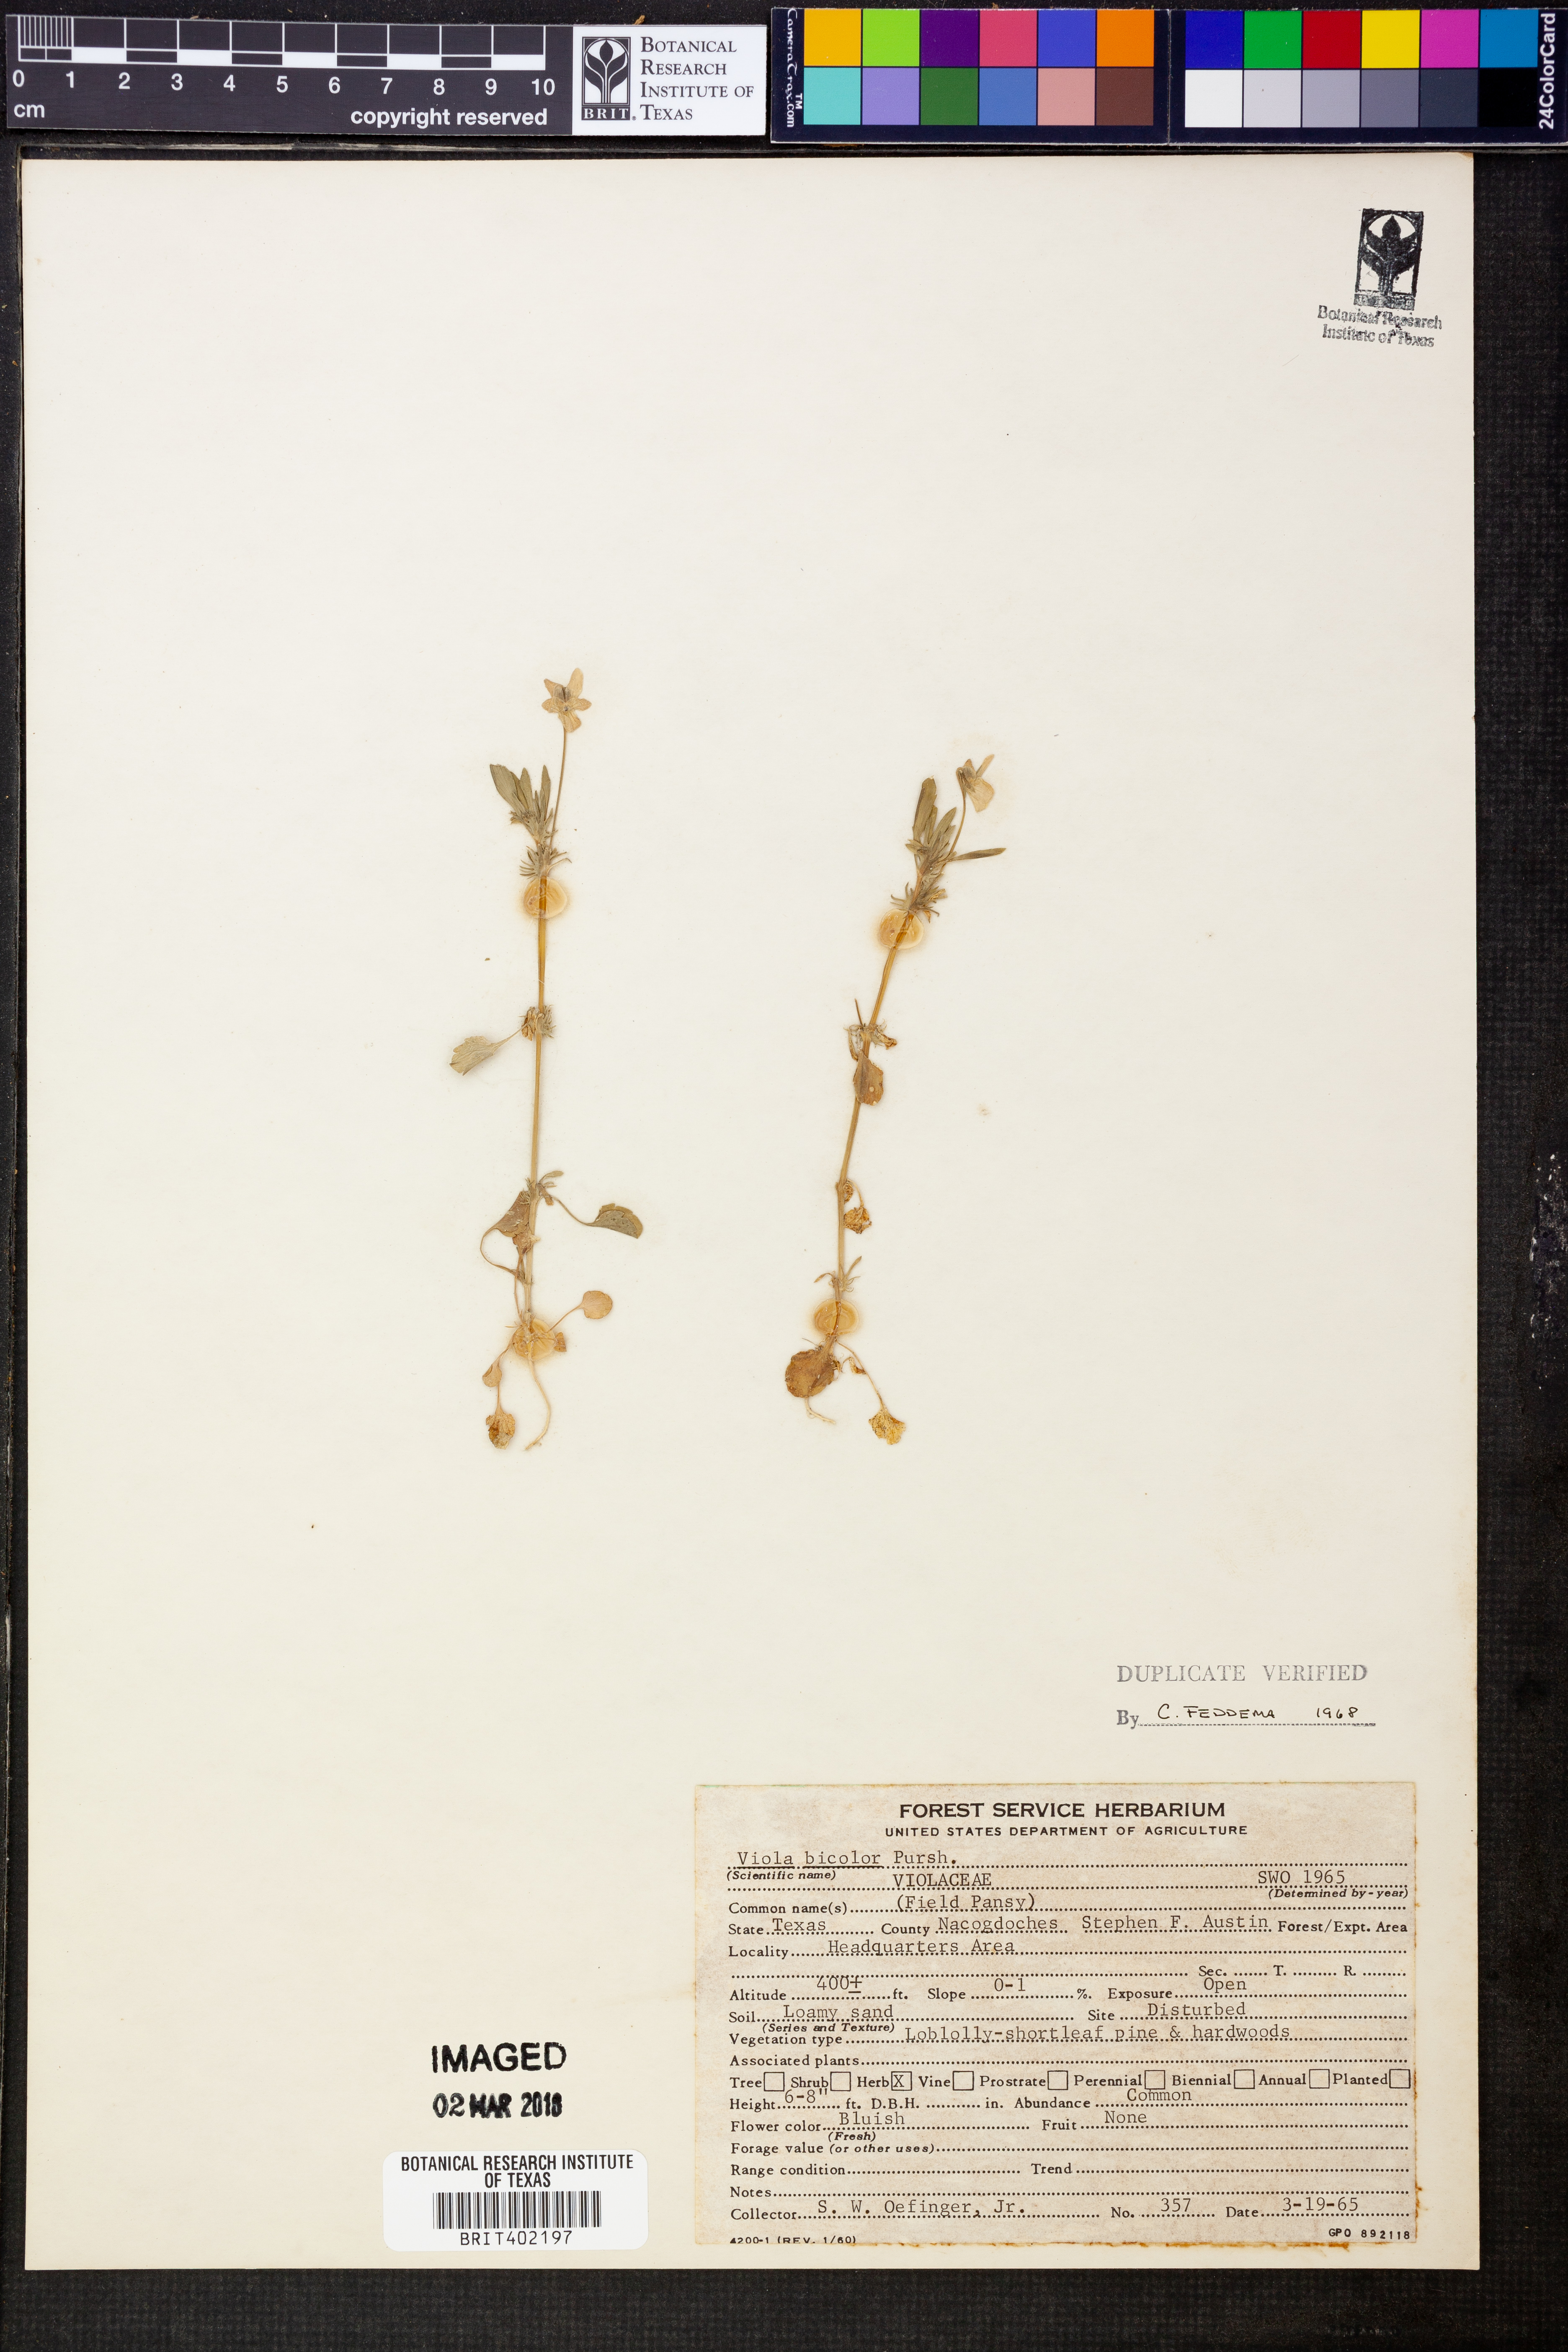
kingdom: Plantae
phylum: Tracheophyta
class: Magnoliopsida
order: Malpighiales
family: Violaceae
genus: Viola
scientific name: Viola rafinesquei
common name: American field pansy
